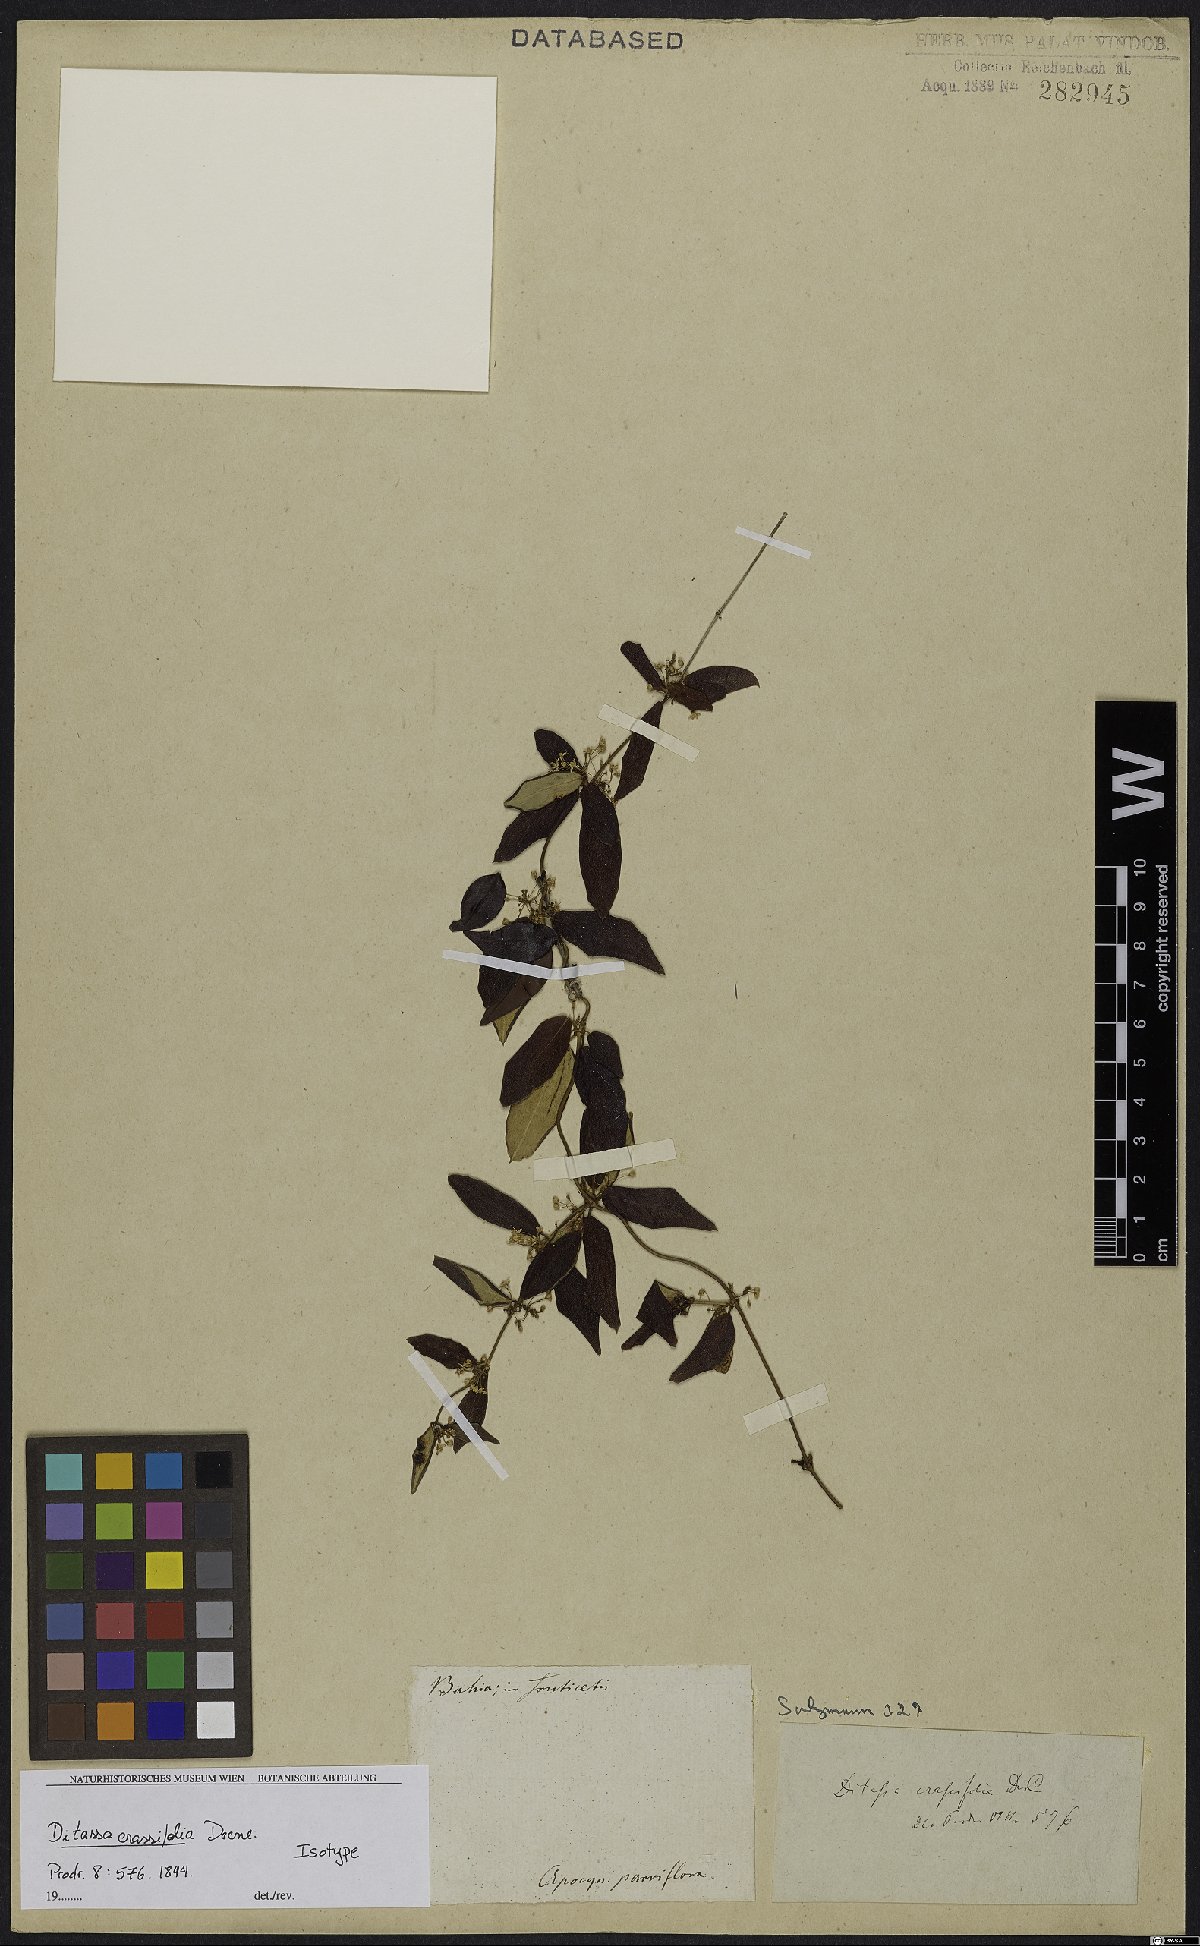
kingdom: Plantae
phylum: Tracheophyta
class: Magnoliopsida
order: Gentianales
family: Apocynaceae
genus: Ditassa
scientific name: Ditassa crassifolia
